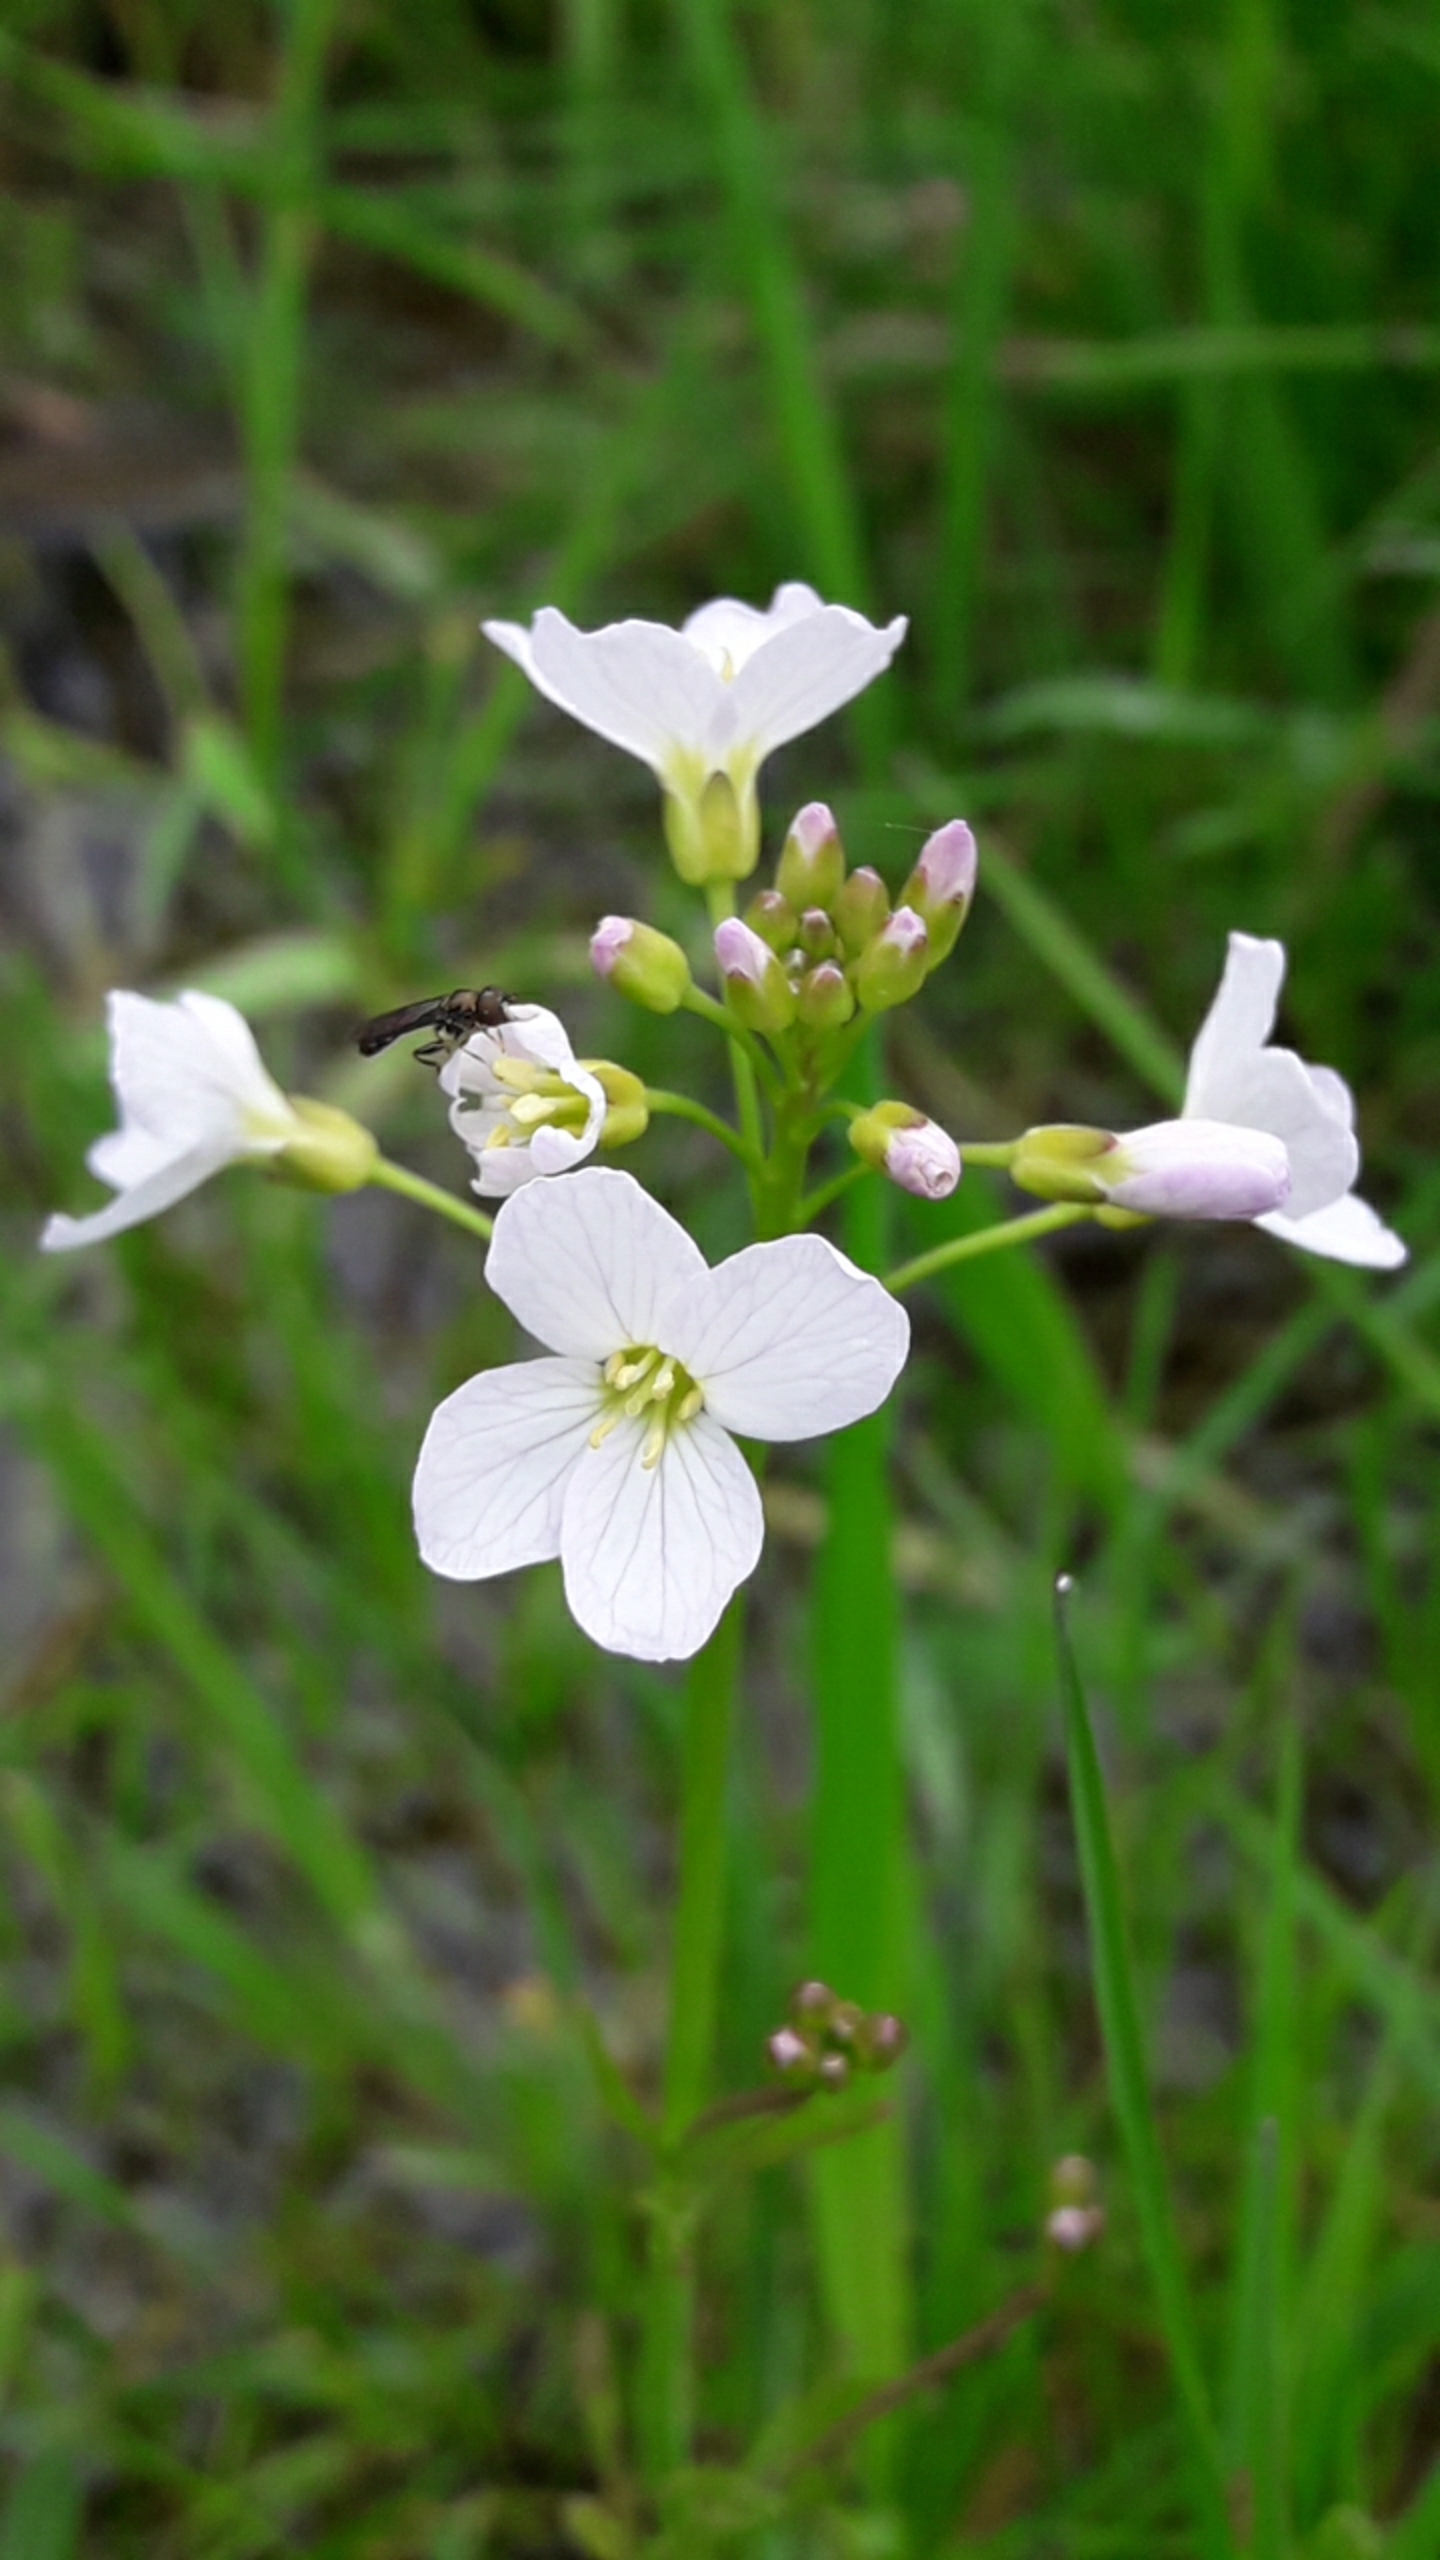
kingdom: Plantae
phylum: Tracheophyta
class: Magnoliopsida
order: Brassicales
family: Brassicaceae
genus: Cardamine
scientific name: Cardamine pratensis
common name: Engkarse
